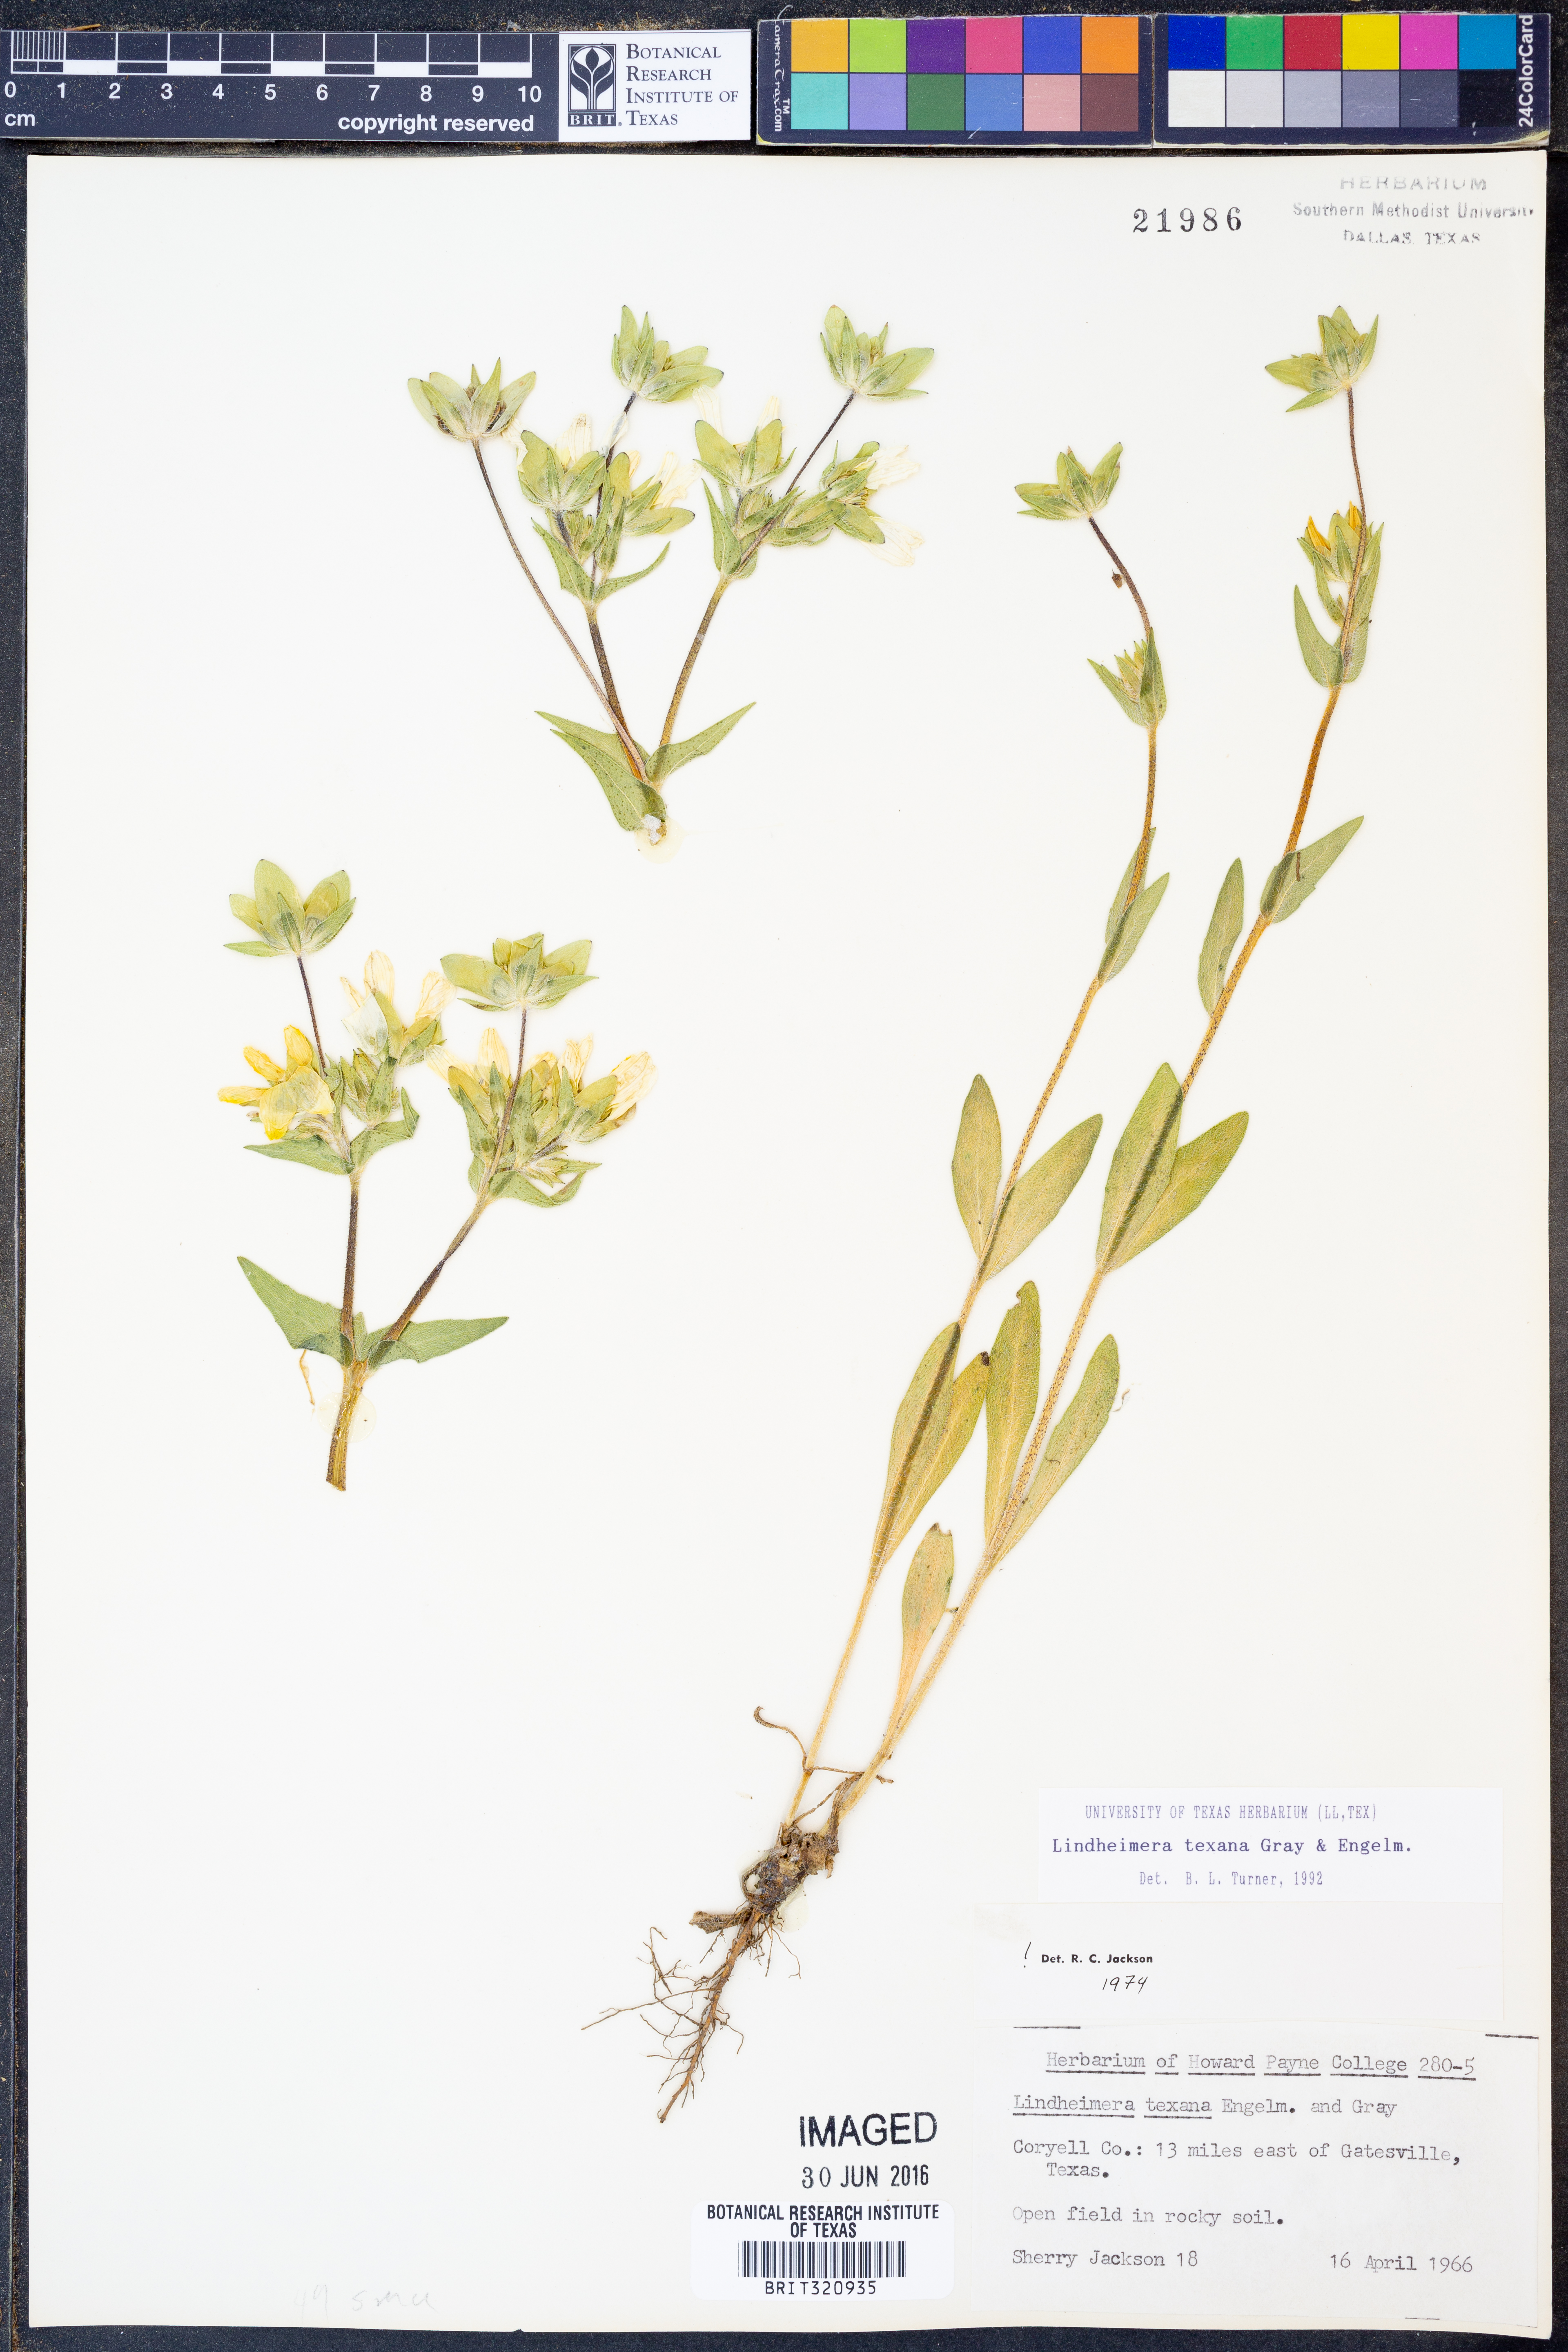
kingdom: Plantae
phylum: Tracheophyta
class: Magnoliopsida
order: Asterales
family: Asteraceae
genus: Lindheimera
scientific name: Lindheimera texana
